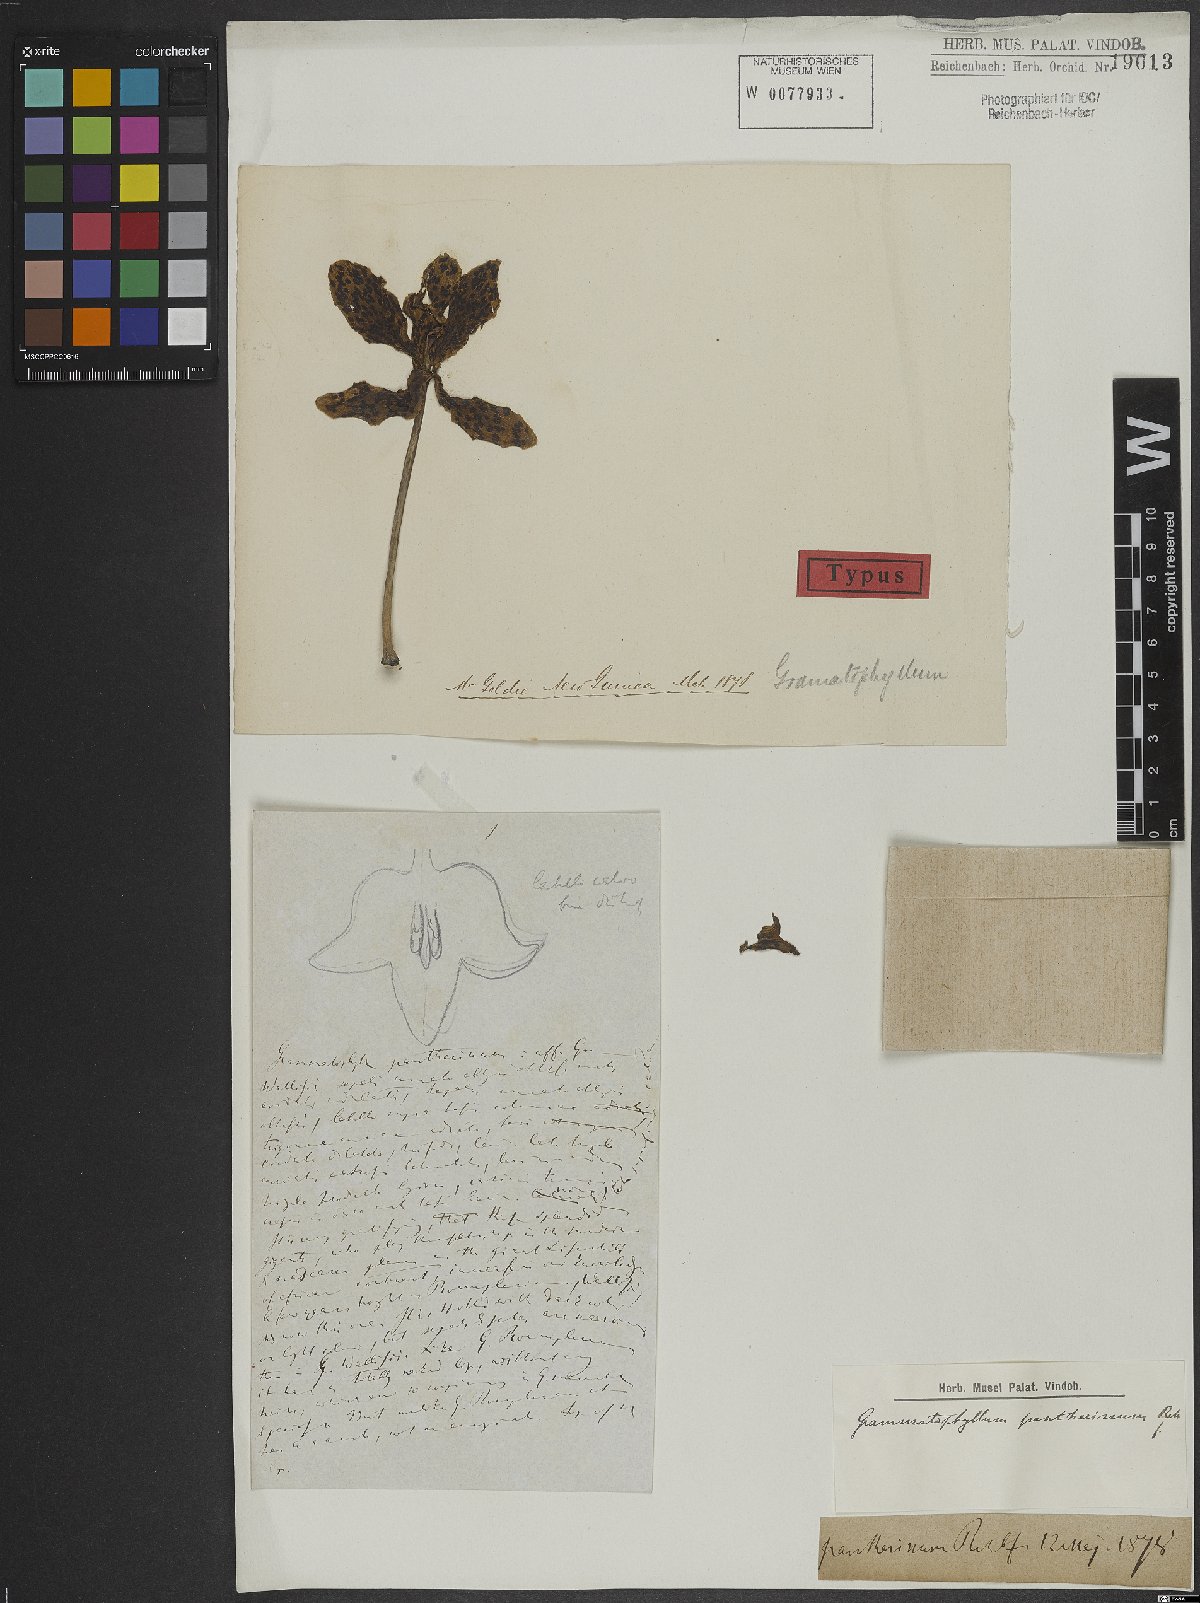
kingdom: Plantae
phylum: Tracheophyta
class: Liliopsida
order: Asparagales
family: Orchidaceae
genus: Grammatophyllum
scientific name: Grammatophyllum pantherinum
